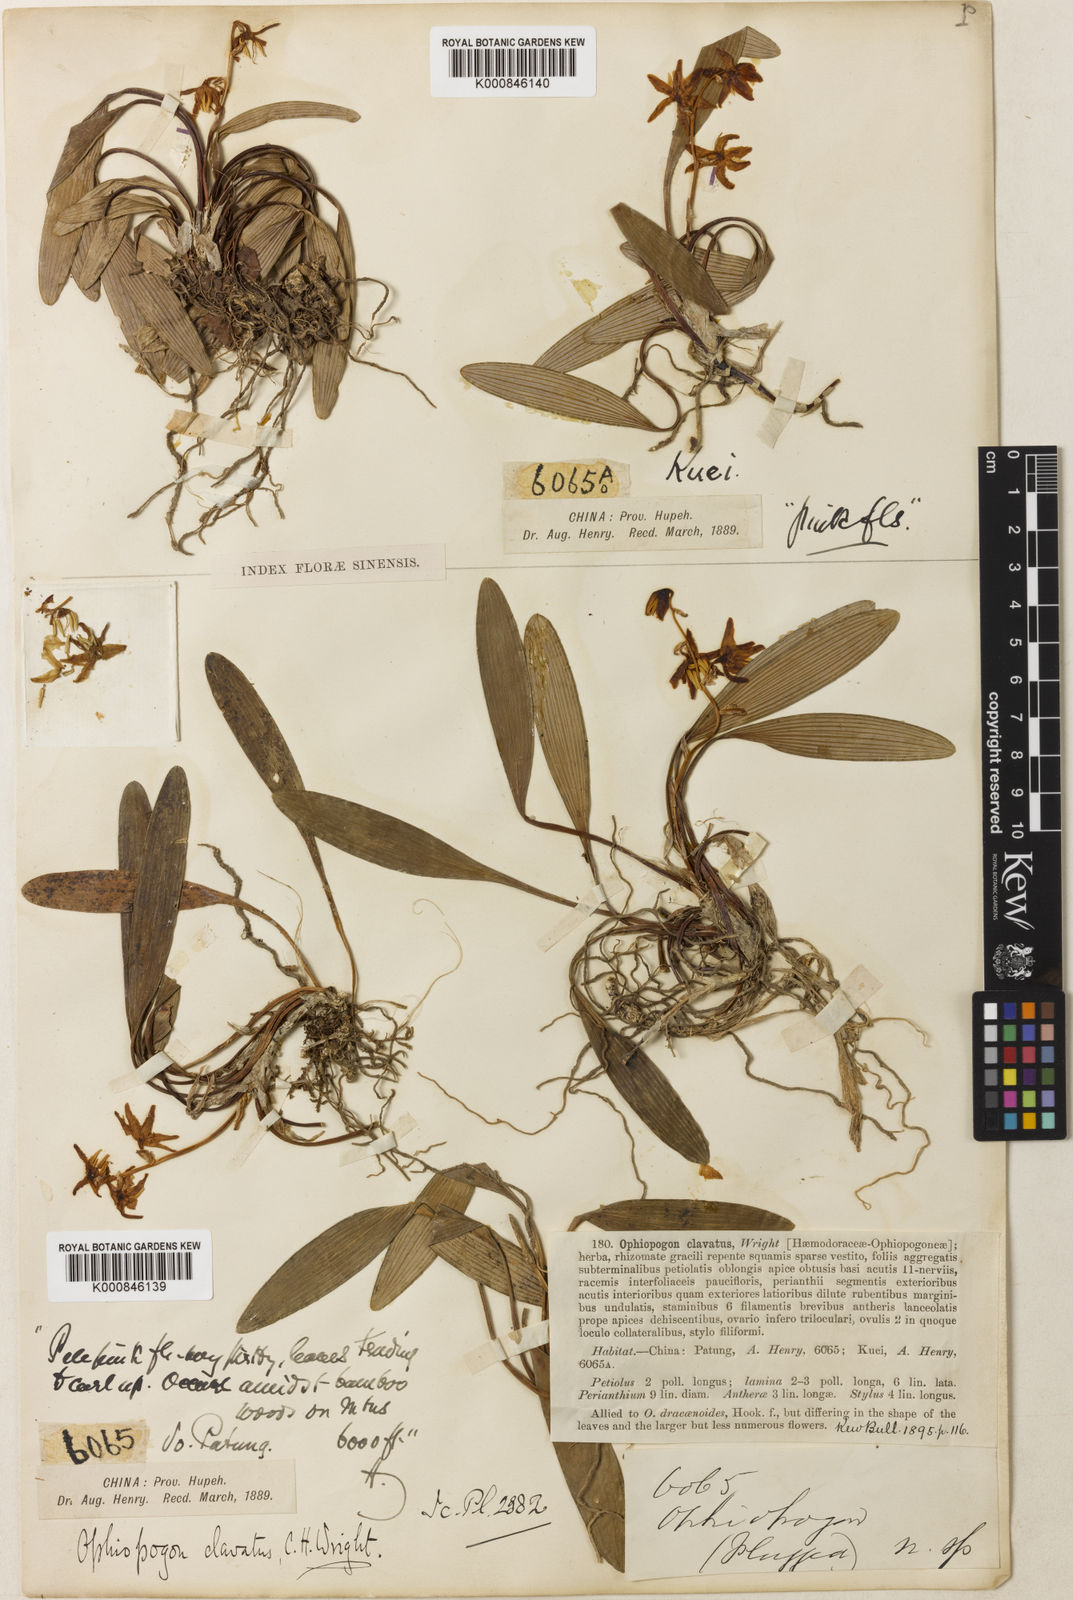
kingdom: Plantae
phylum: Tracheophyta
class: Liliopsida
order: Asparagales
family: Asparagaceae
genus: Ophiopogon
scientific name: Ophiopogon clavatus
